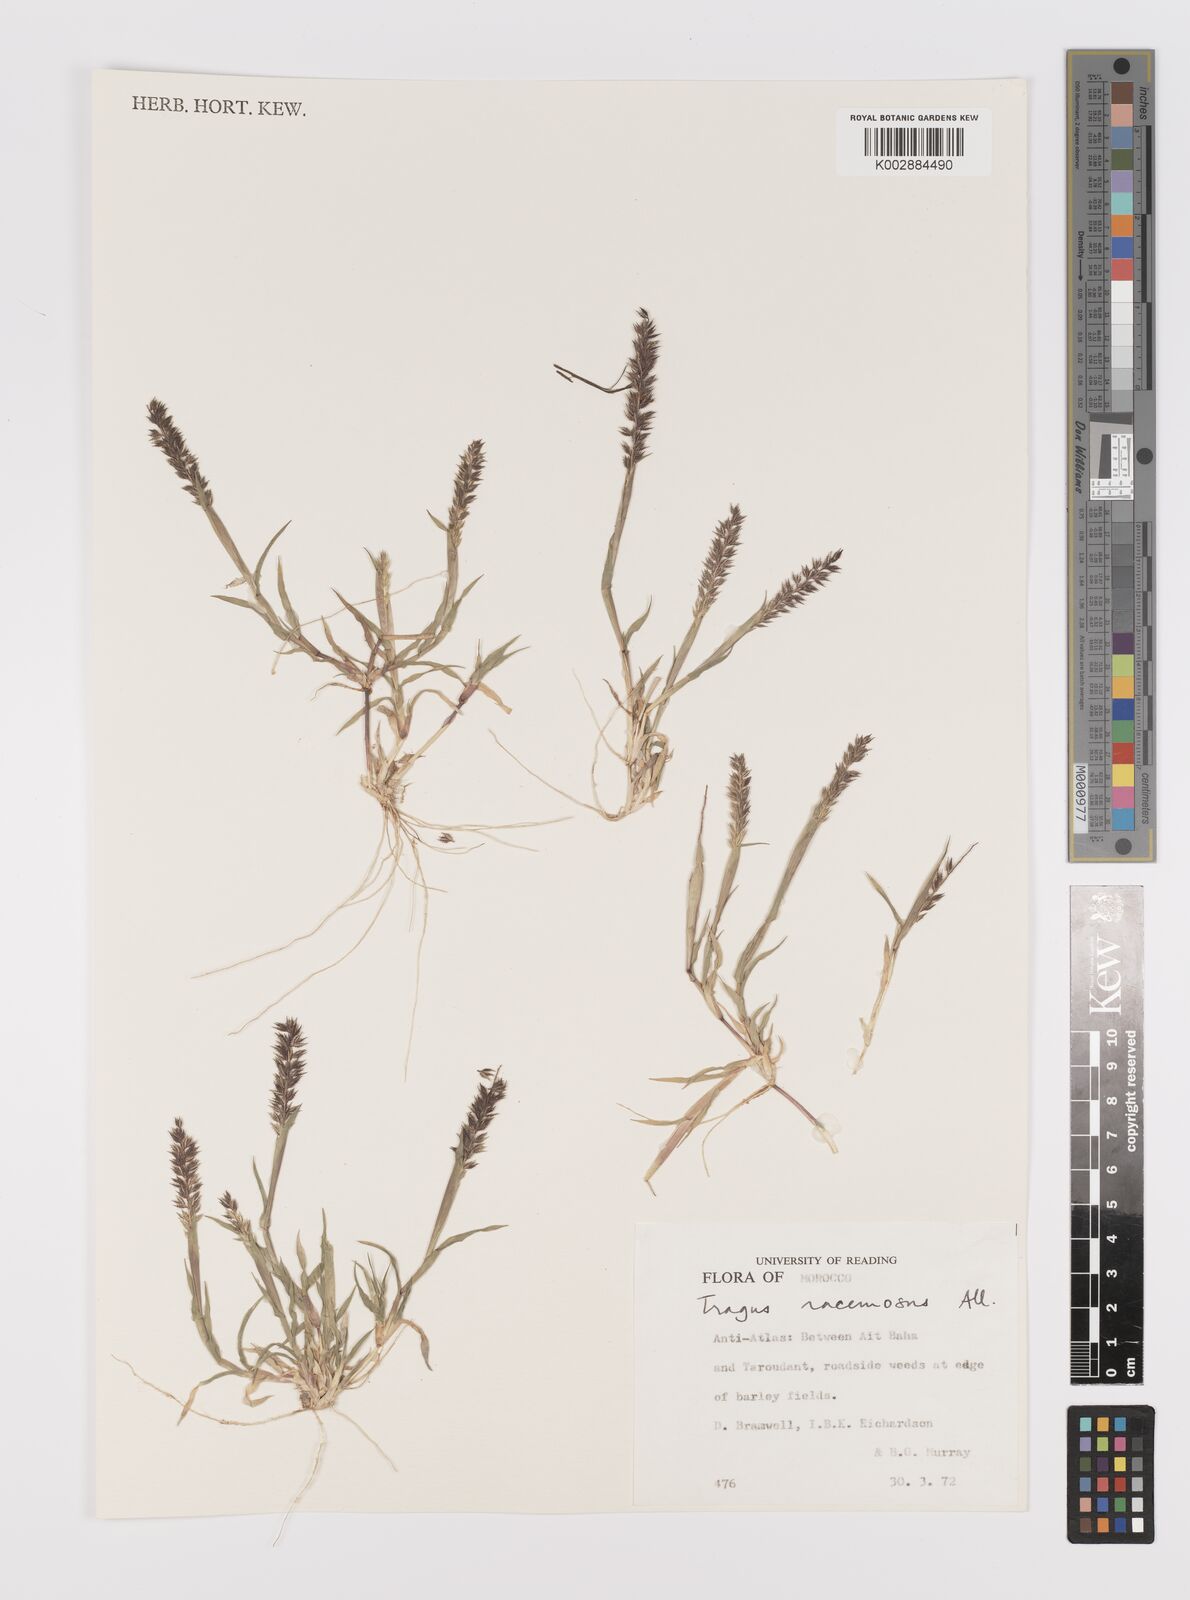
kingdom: Plantae
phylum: Tracheophyta
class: Liliopsida
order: Poales
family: Poaceae
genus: Tragus
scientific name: Tragus racemosus
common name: European bur-grass
